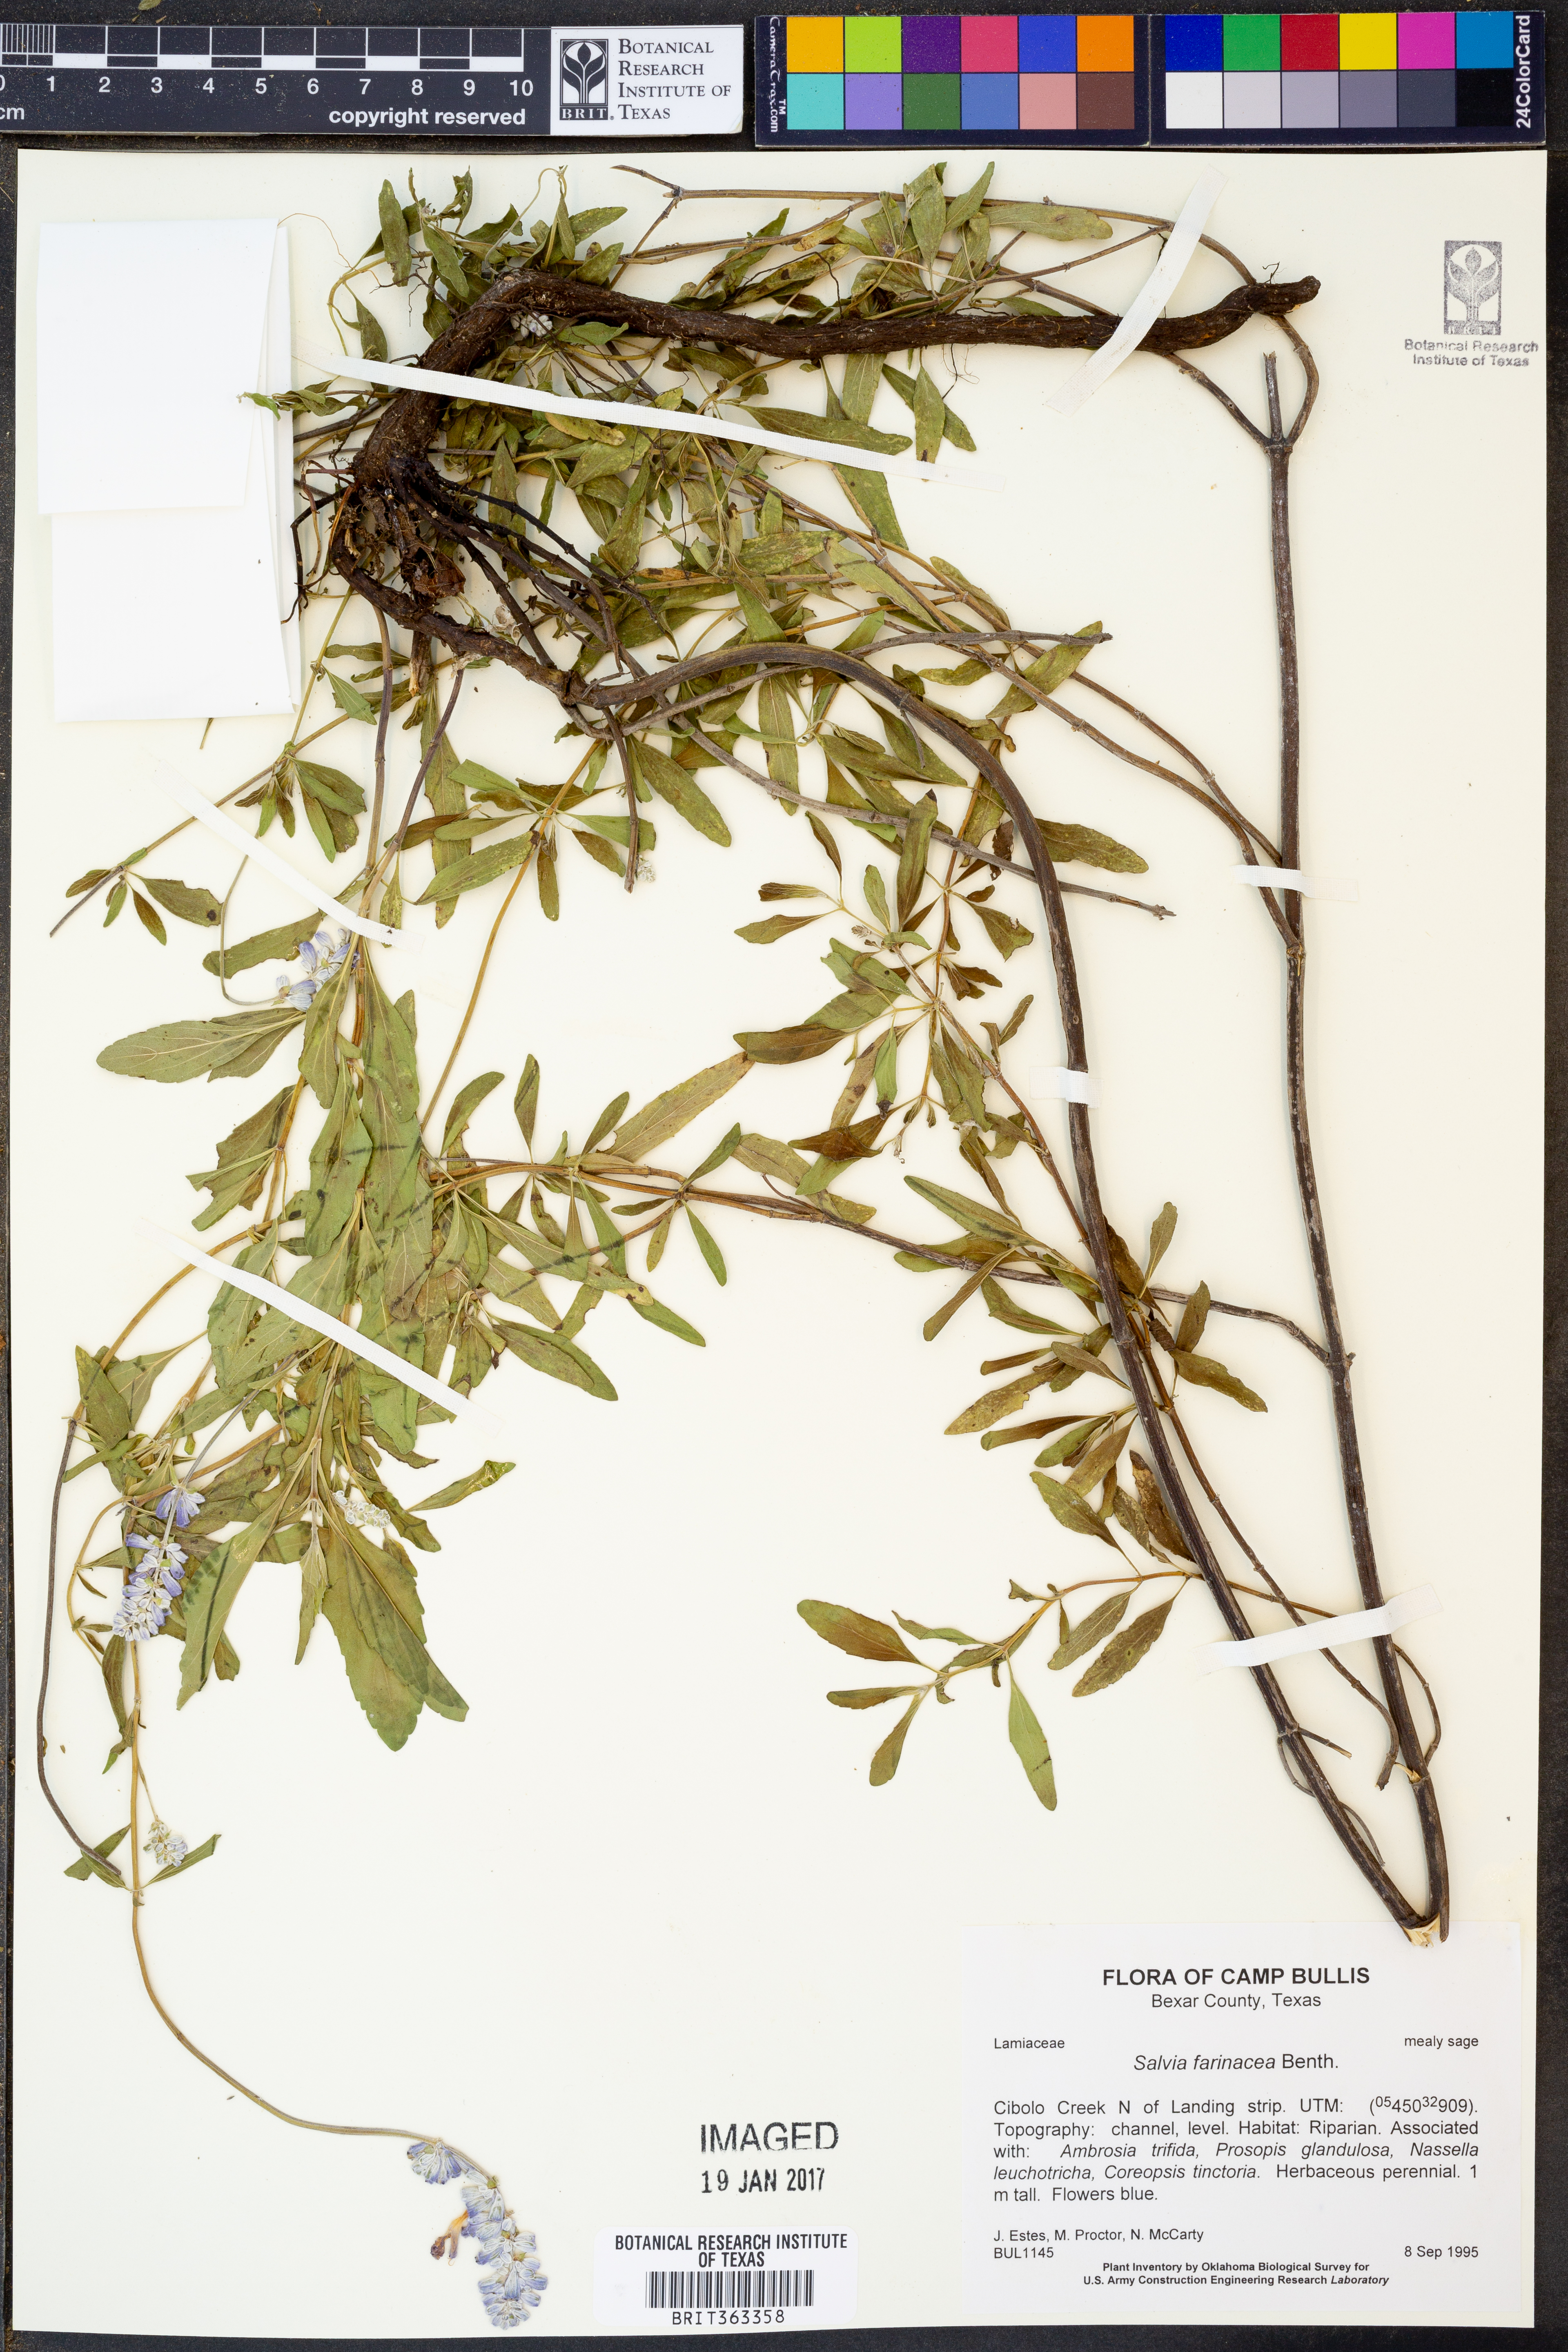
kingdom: Plantae
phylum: Tracheophyta
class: Magnoliopsida
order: Lamiales
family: Lamiaceae
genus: Salvia
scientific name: Salvia farinacea
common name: Mealy sage
